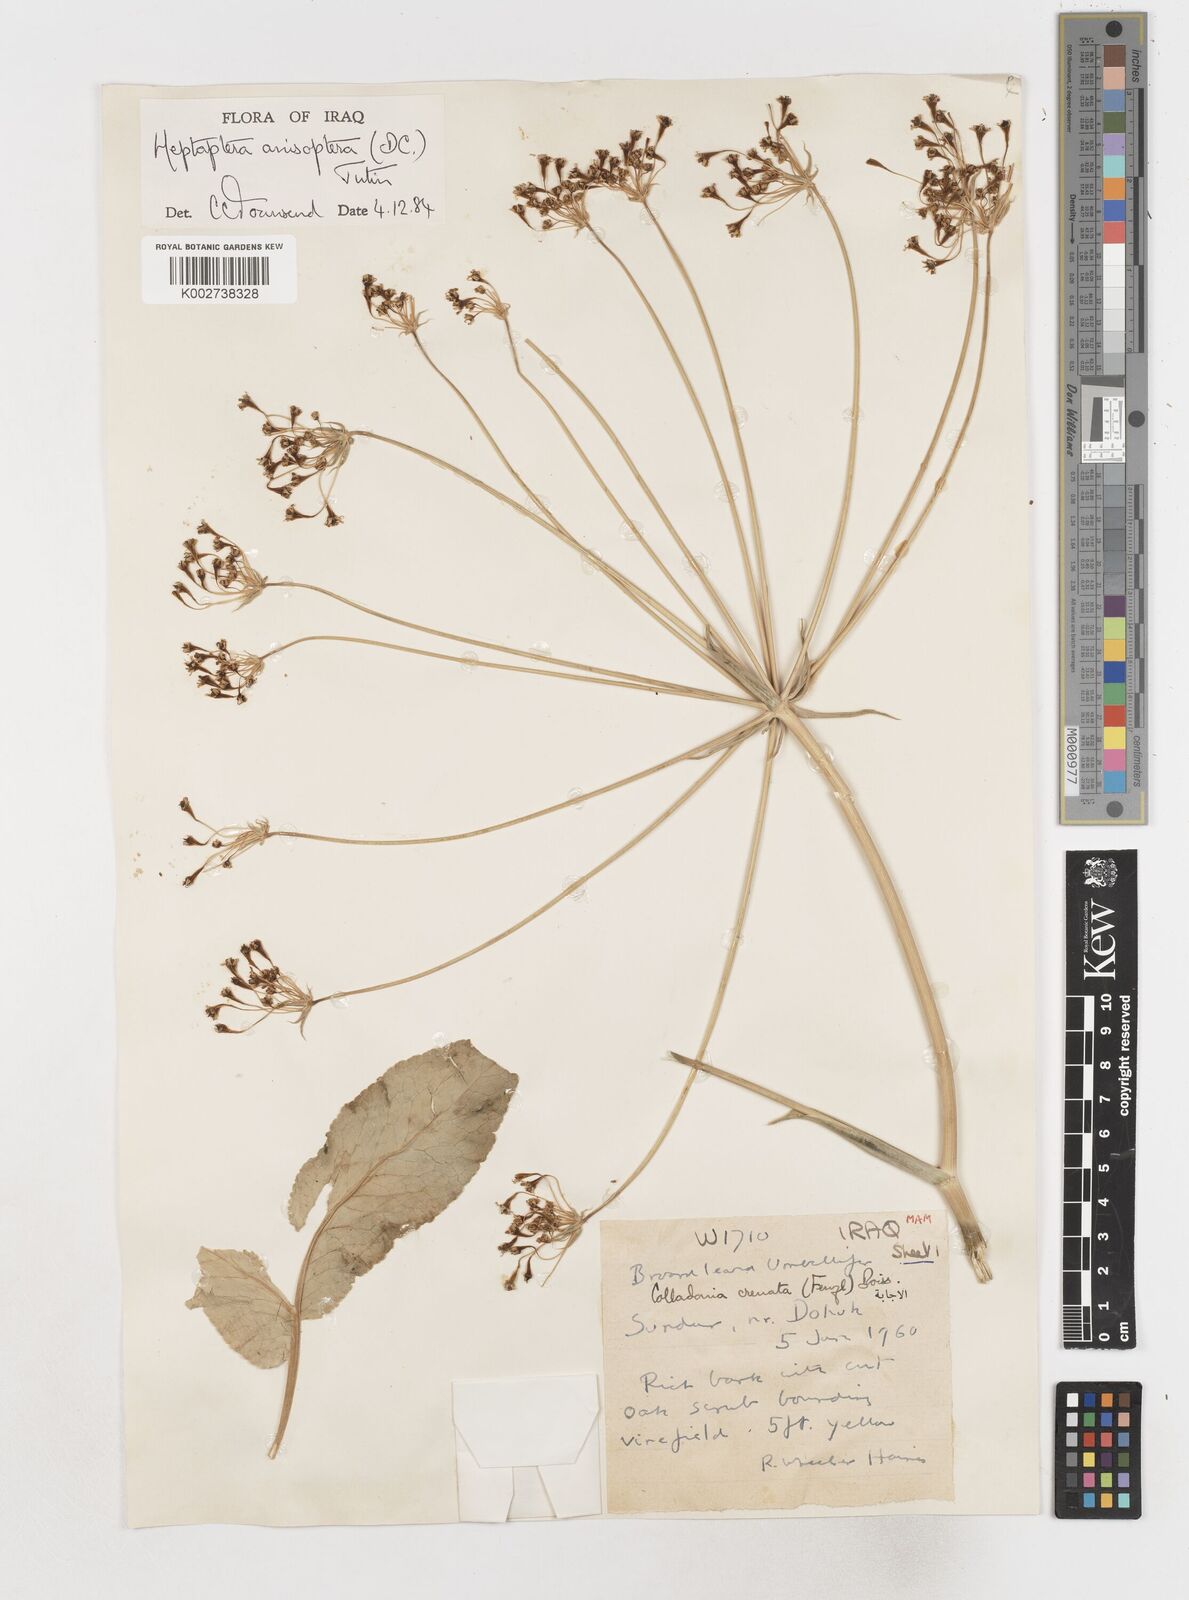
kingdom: Plantae
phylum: Tracheophyta
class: Magnoliopsida
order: Apiales
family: Apiaceae
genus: Heptaptera
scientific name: Heptaptera
